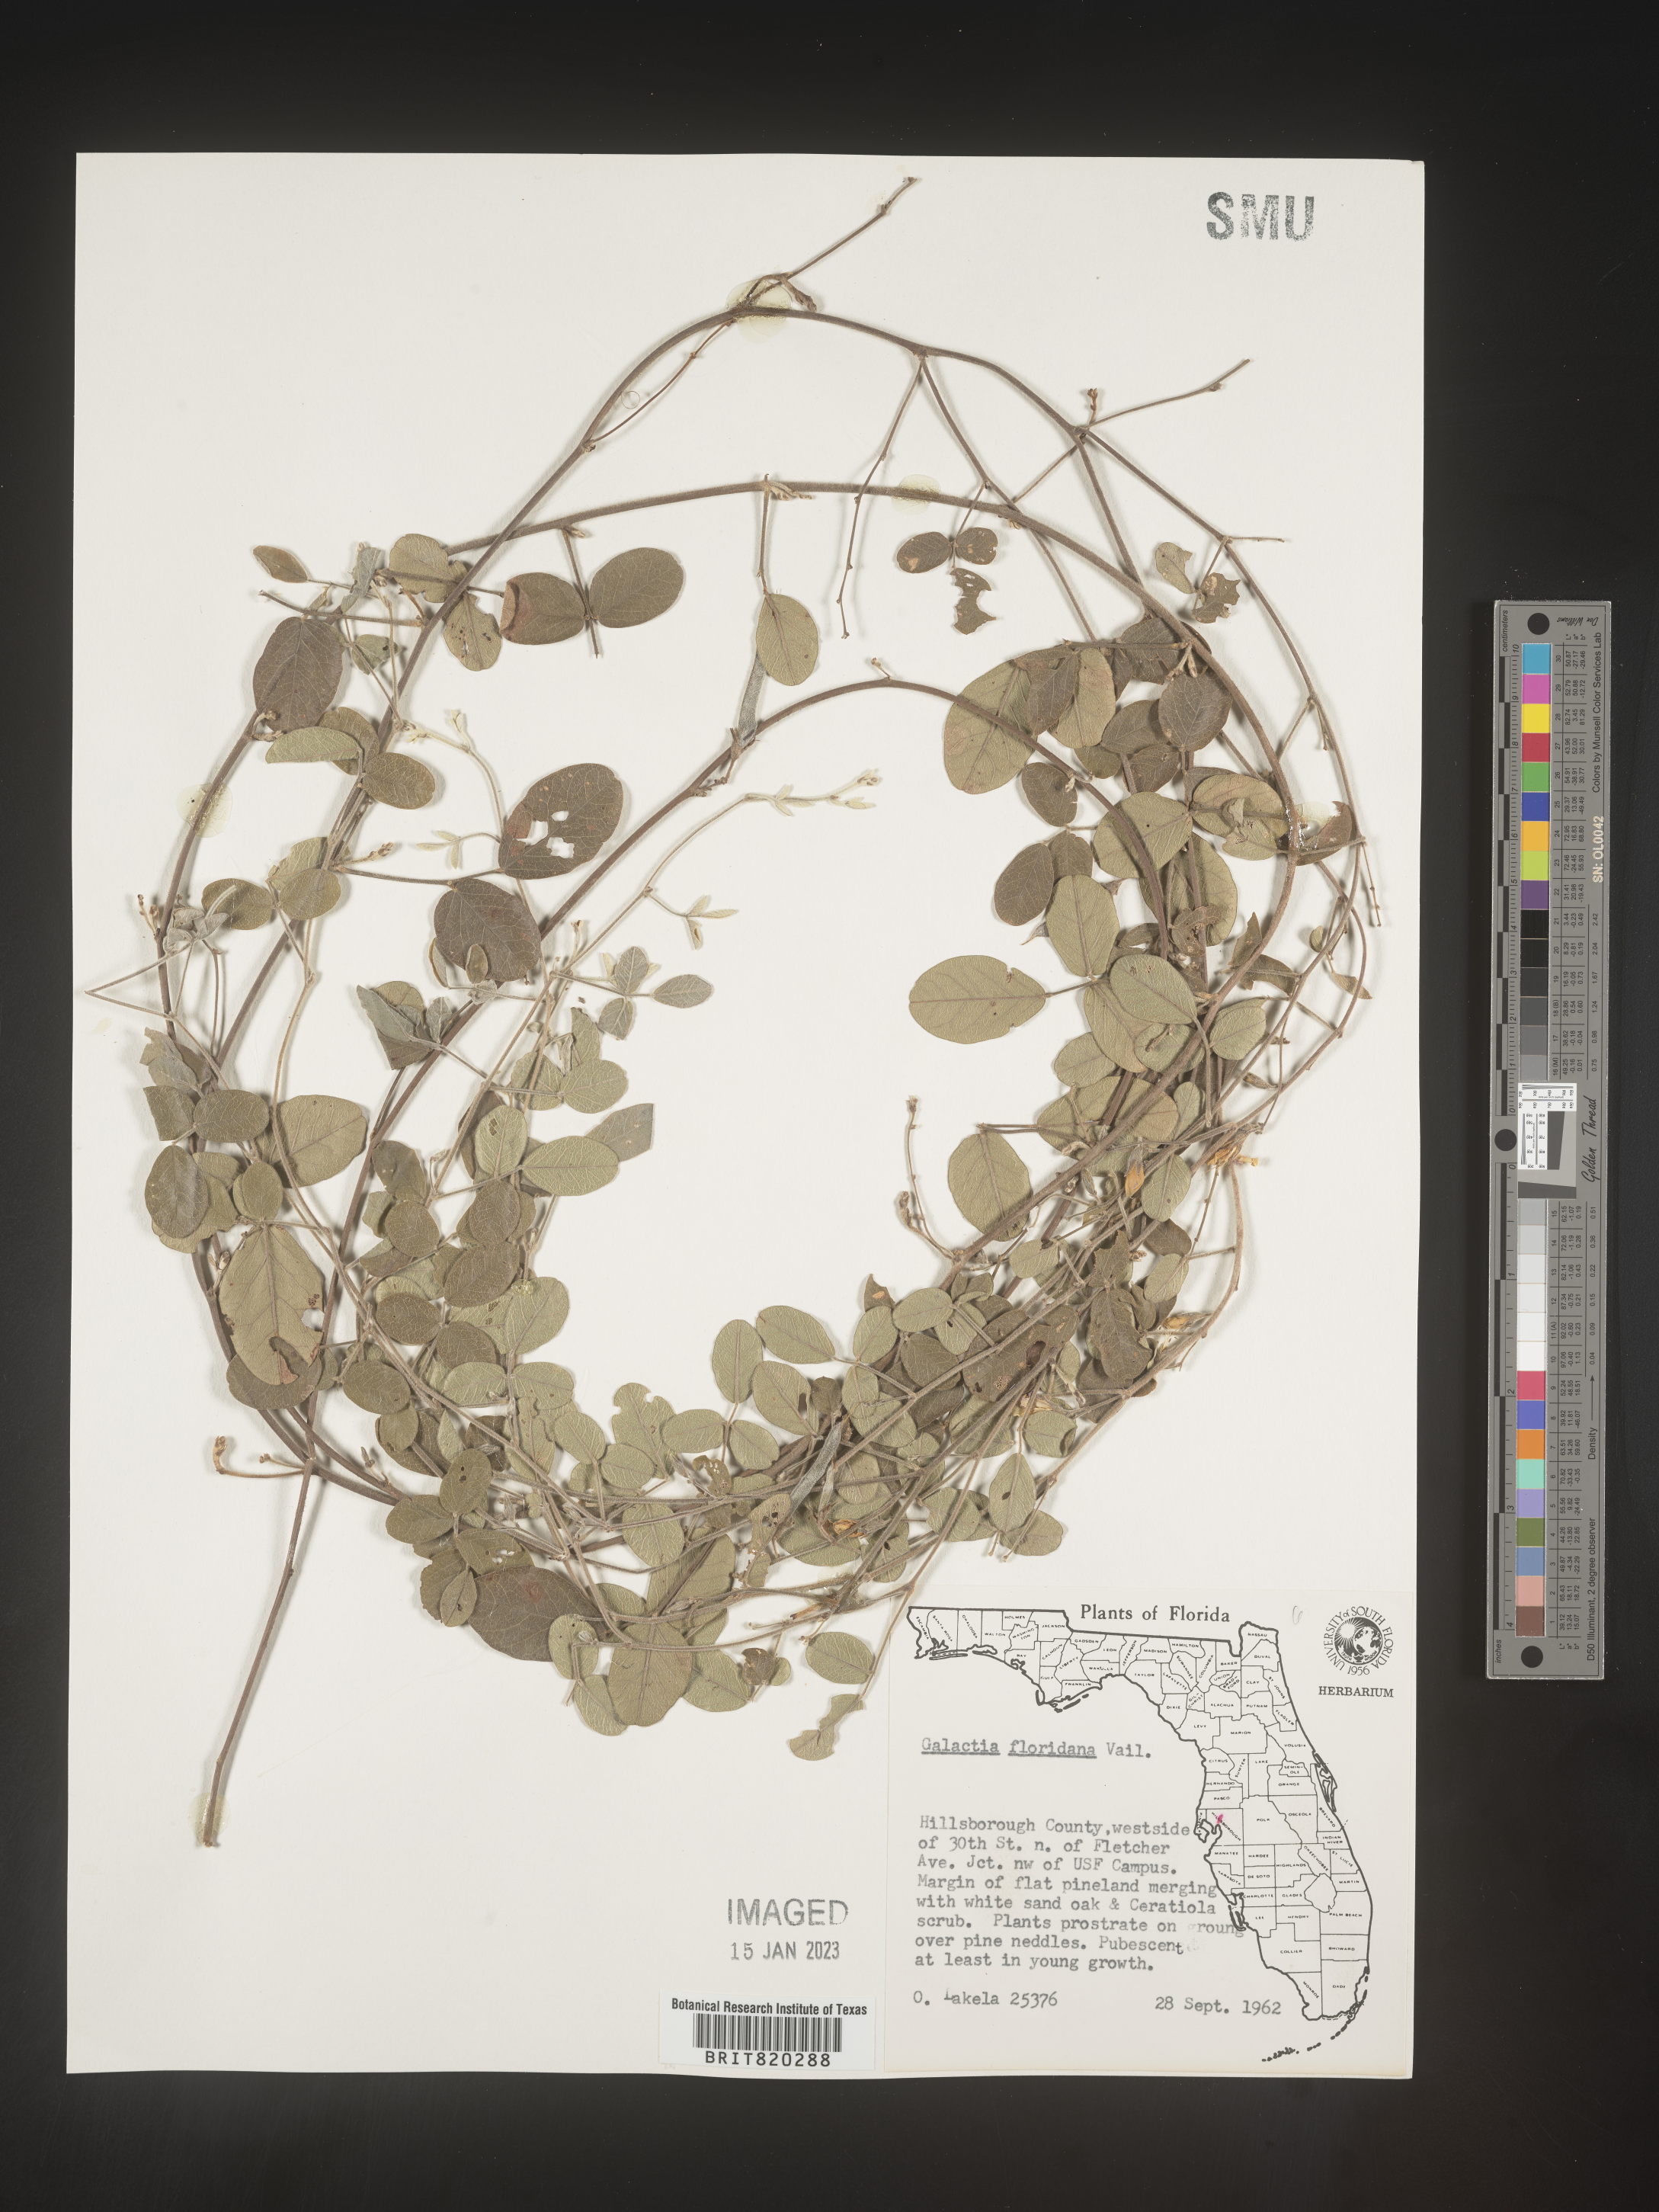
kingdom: Plantae
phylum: Tracheophyta
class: Magnoliopsida
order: Fabales
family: Fabaceae
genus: Galactia
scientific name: Galactia floridana
